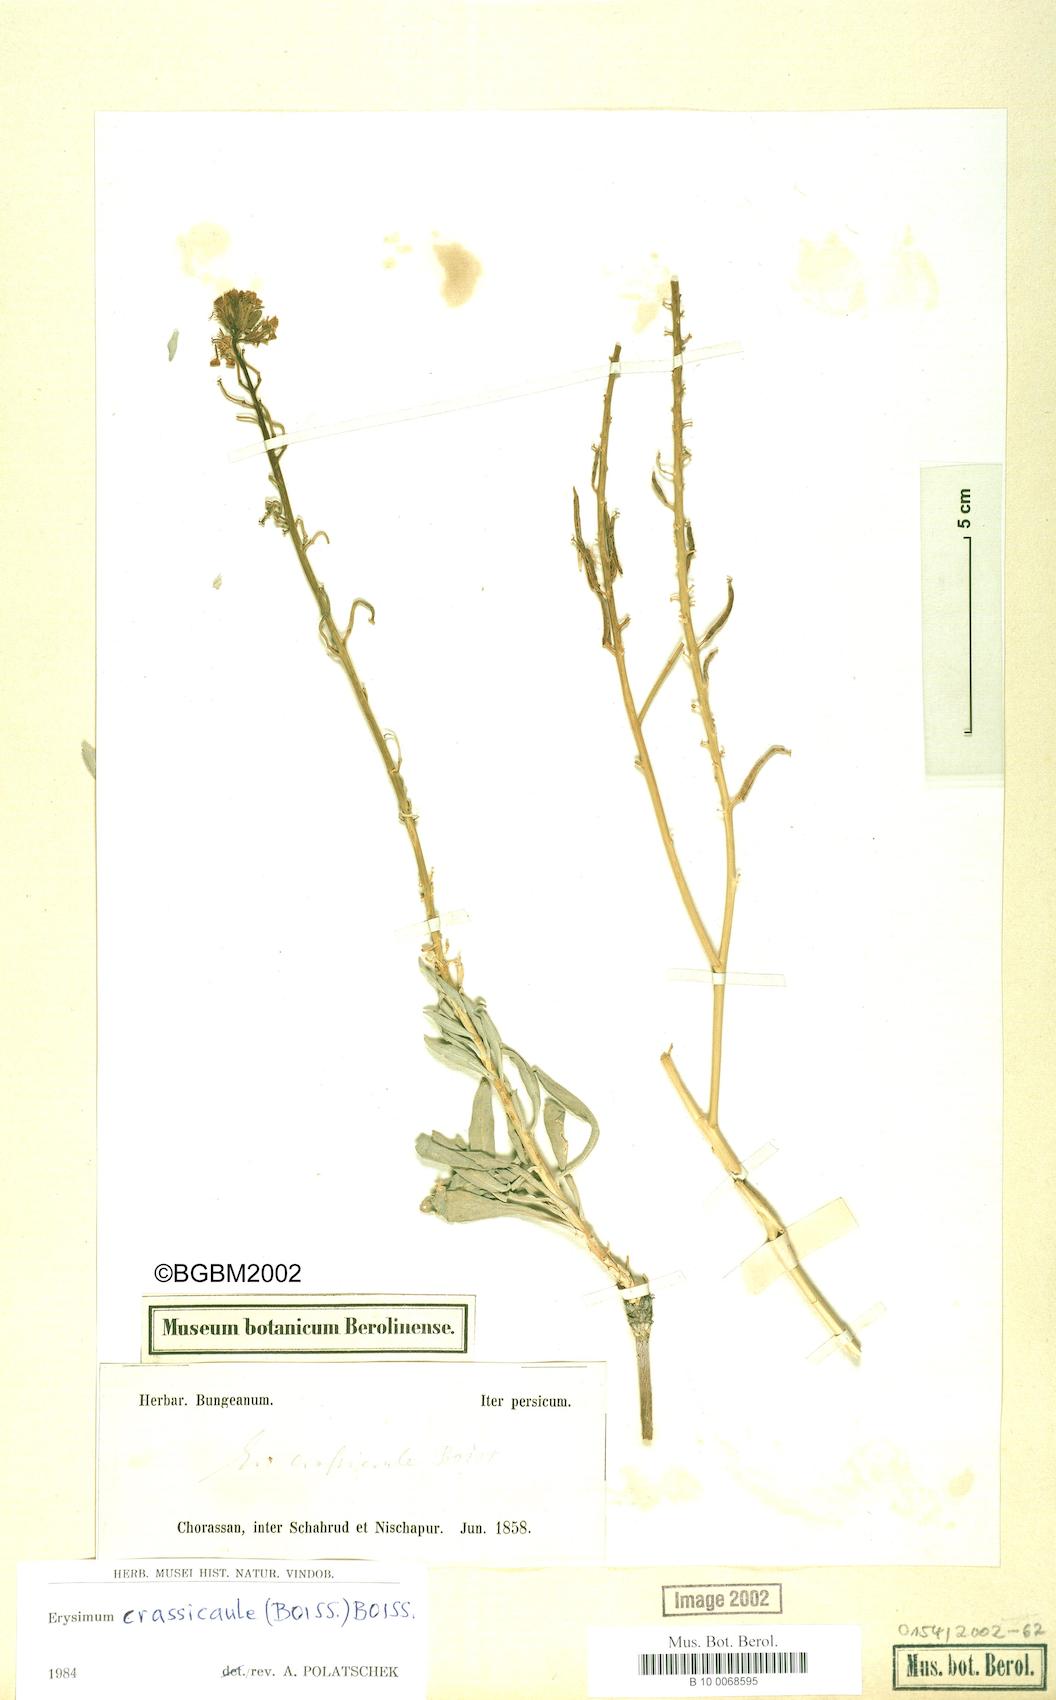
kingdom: Plantae
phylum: Tracheophyta
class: Magnoliopsida
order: Brassicales
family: Brassicaceae
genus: Erysimum
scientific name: Erysimum crassicaule
